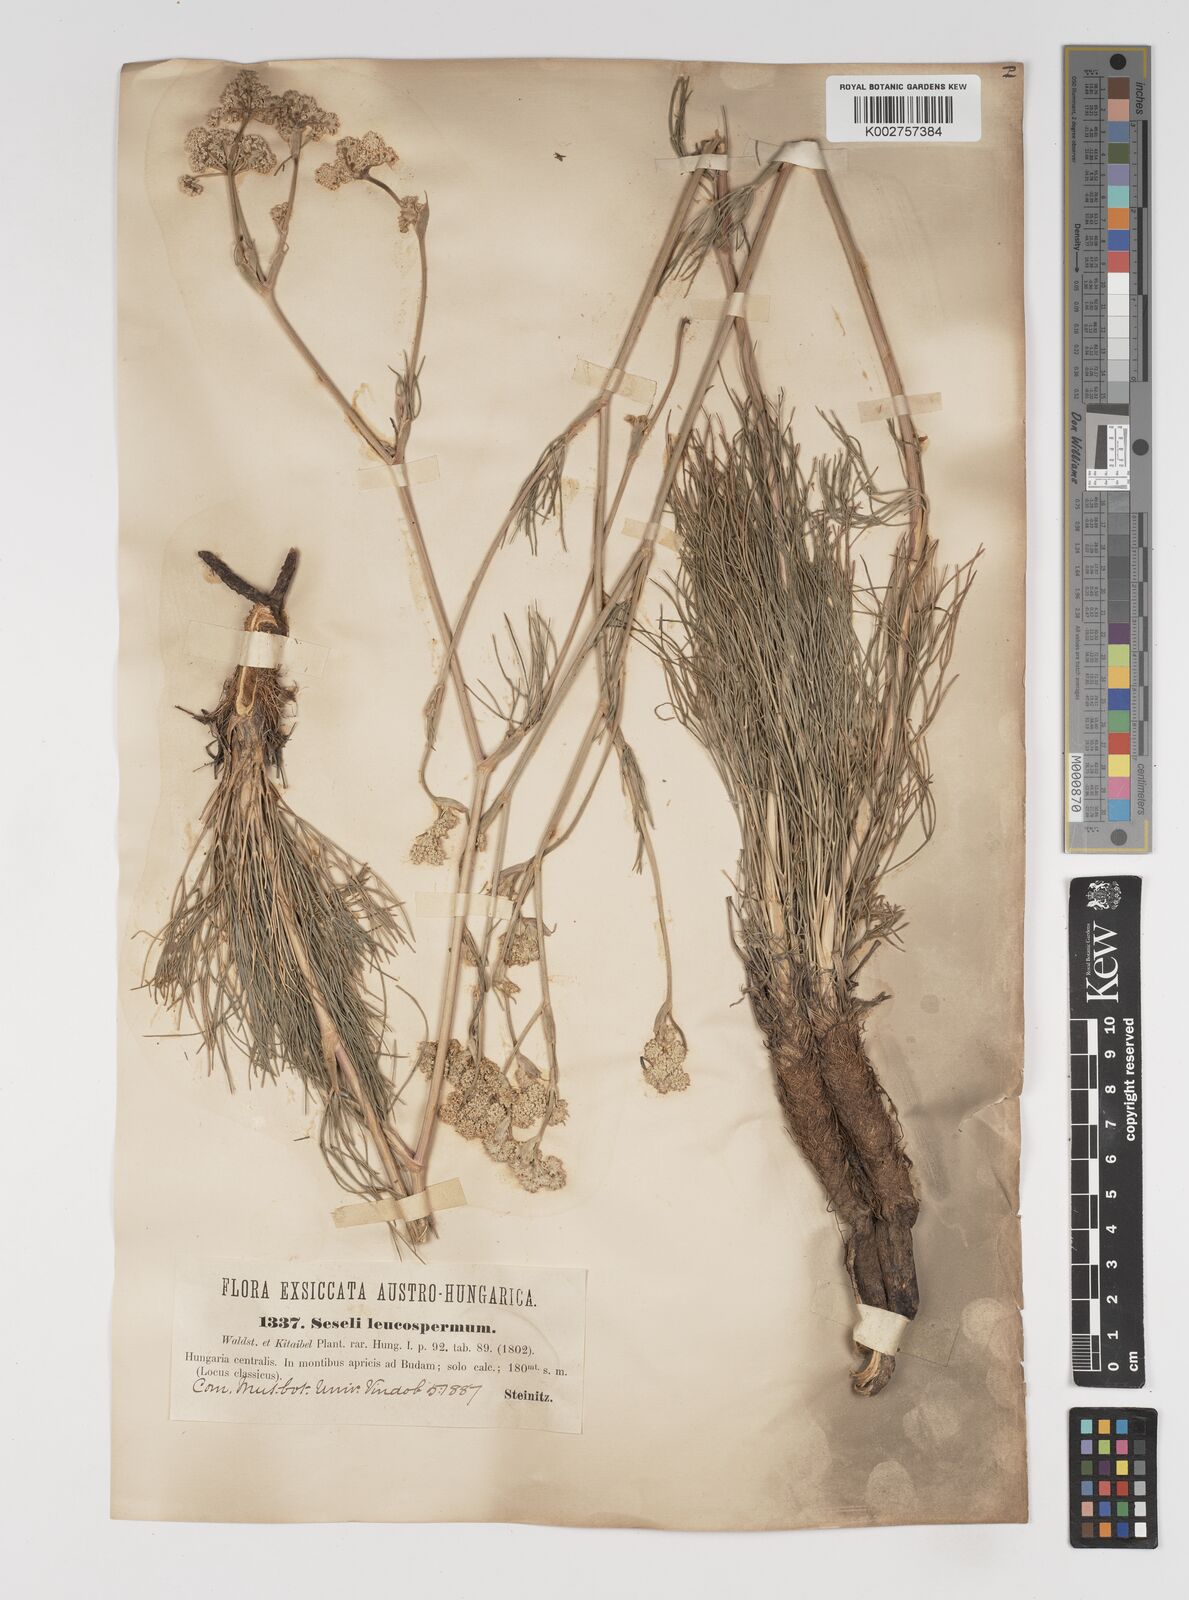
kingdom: Plantae
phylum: Tracheophyta
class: Magnoliopsida
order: Apiales
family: Apiaceae
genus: Seseli
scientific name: Seseli leucospermum
